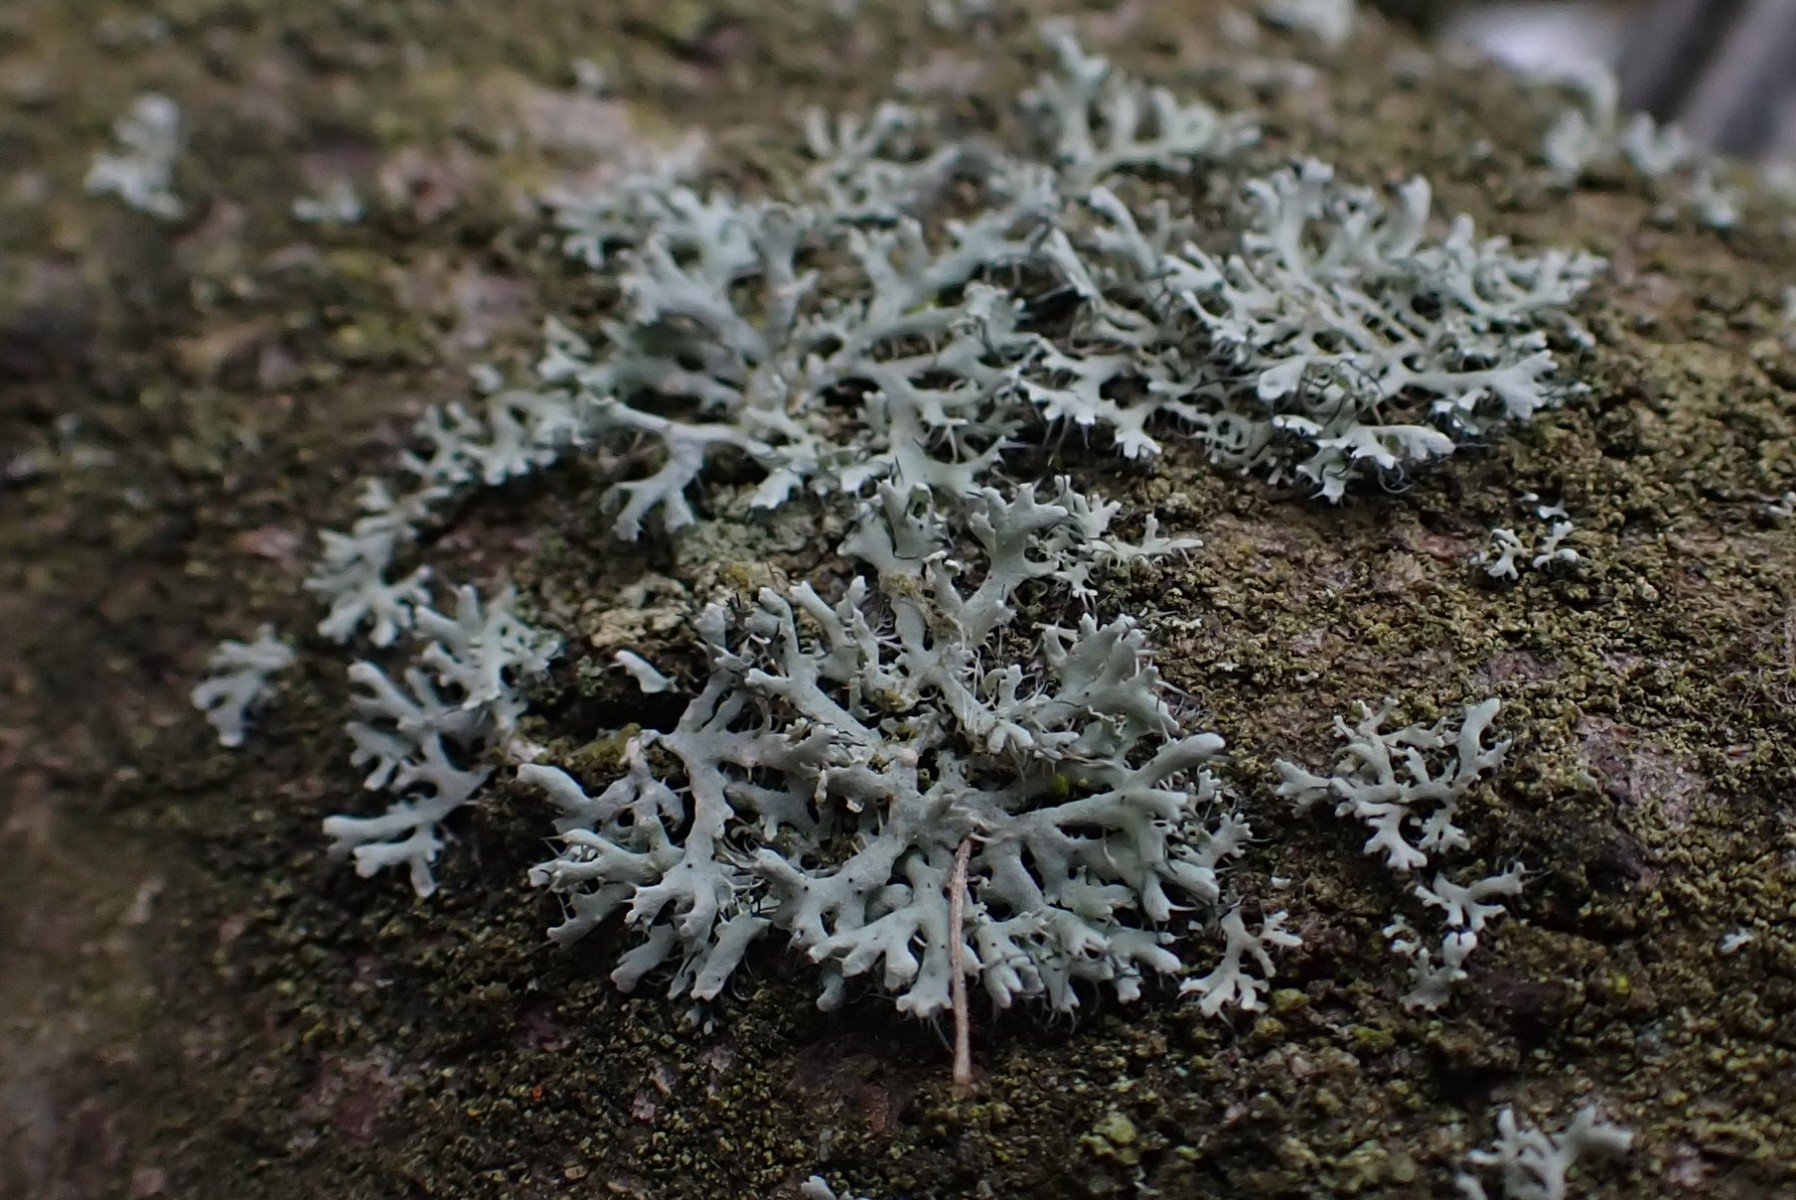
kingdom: Fungi
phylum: Ascomycota
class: Lecanoromycetes
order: Caliciales
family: Physciaceae
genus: Physcia
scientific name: Physcia tenella
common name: spæd rosetlav
